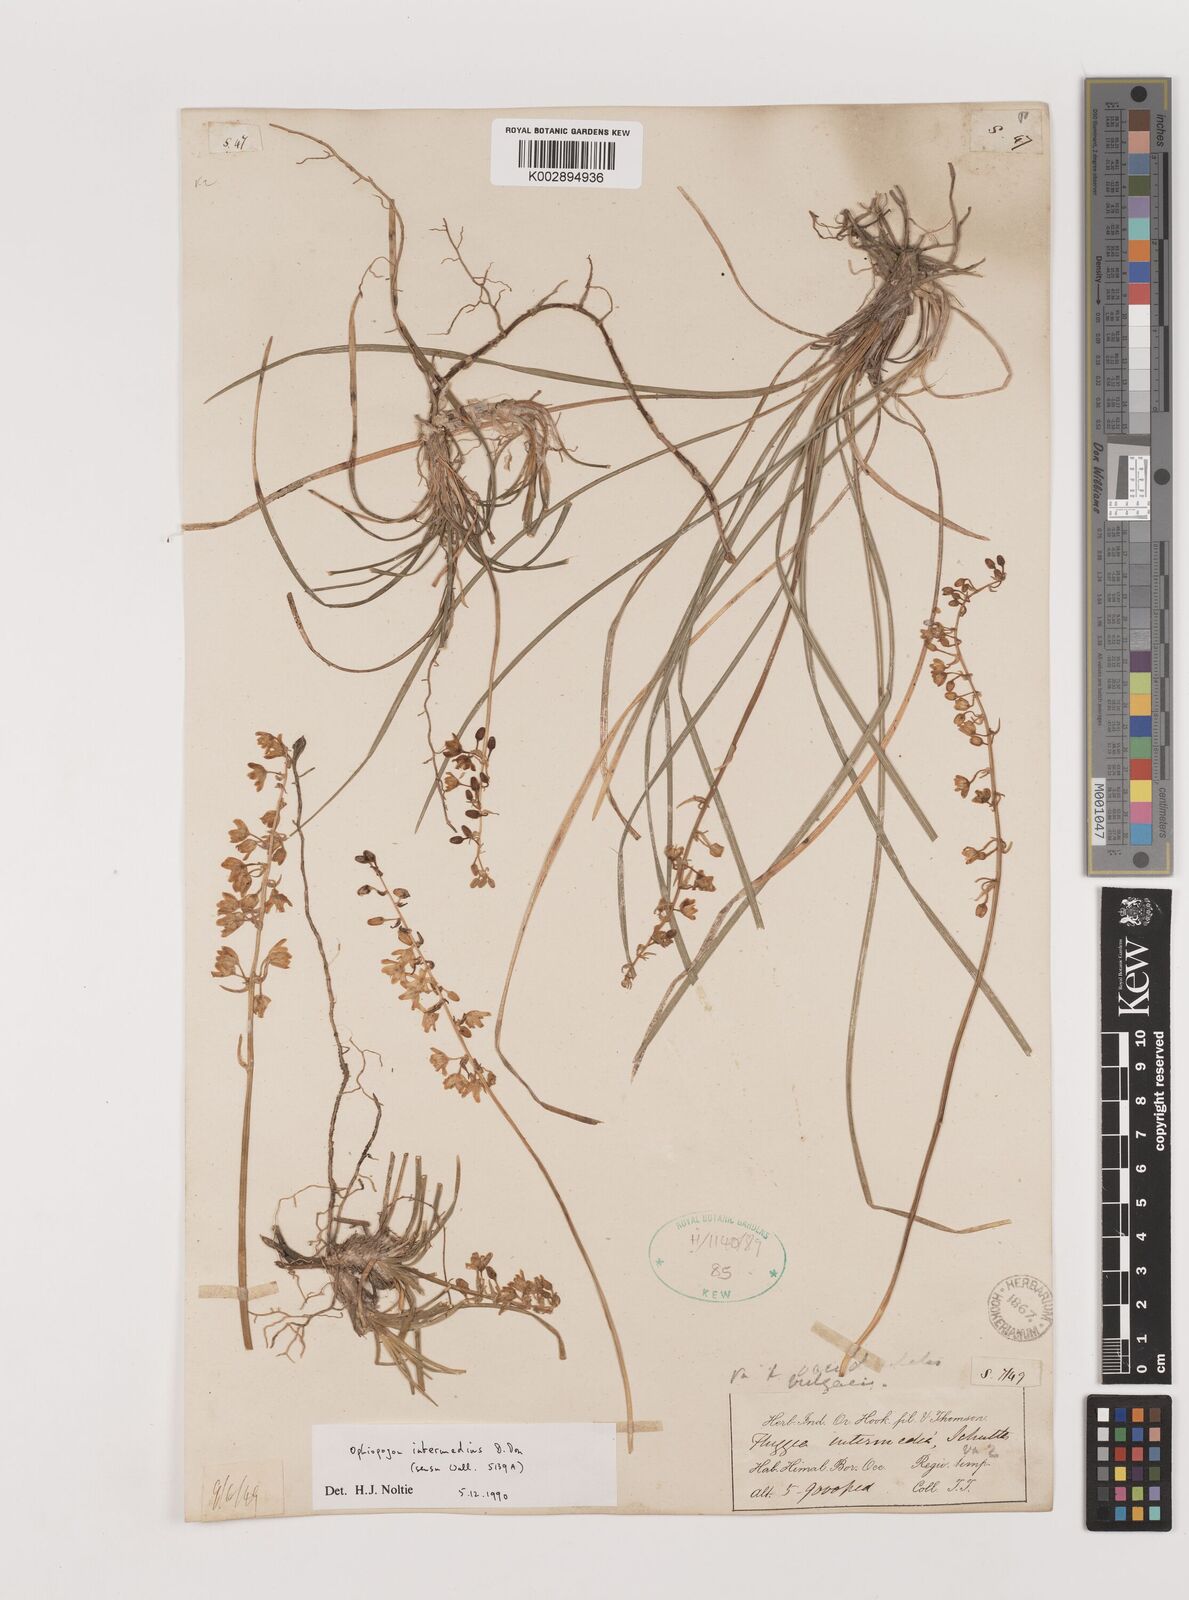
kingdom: Plantae
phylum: Tracheophyta
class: Liliopsida
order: Asparagales
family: Asparagaceae
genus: Ophiopogon
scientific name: Ophiopogon intermedius
